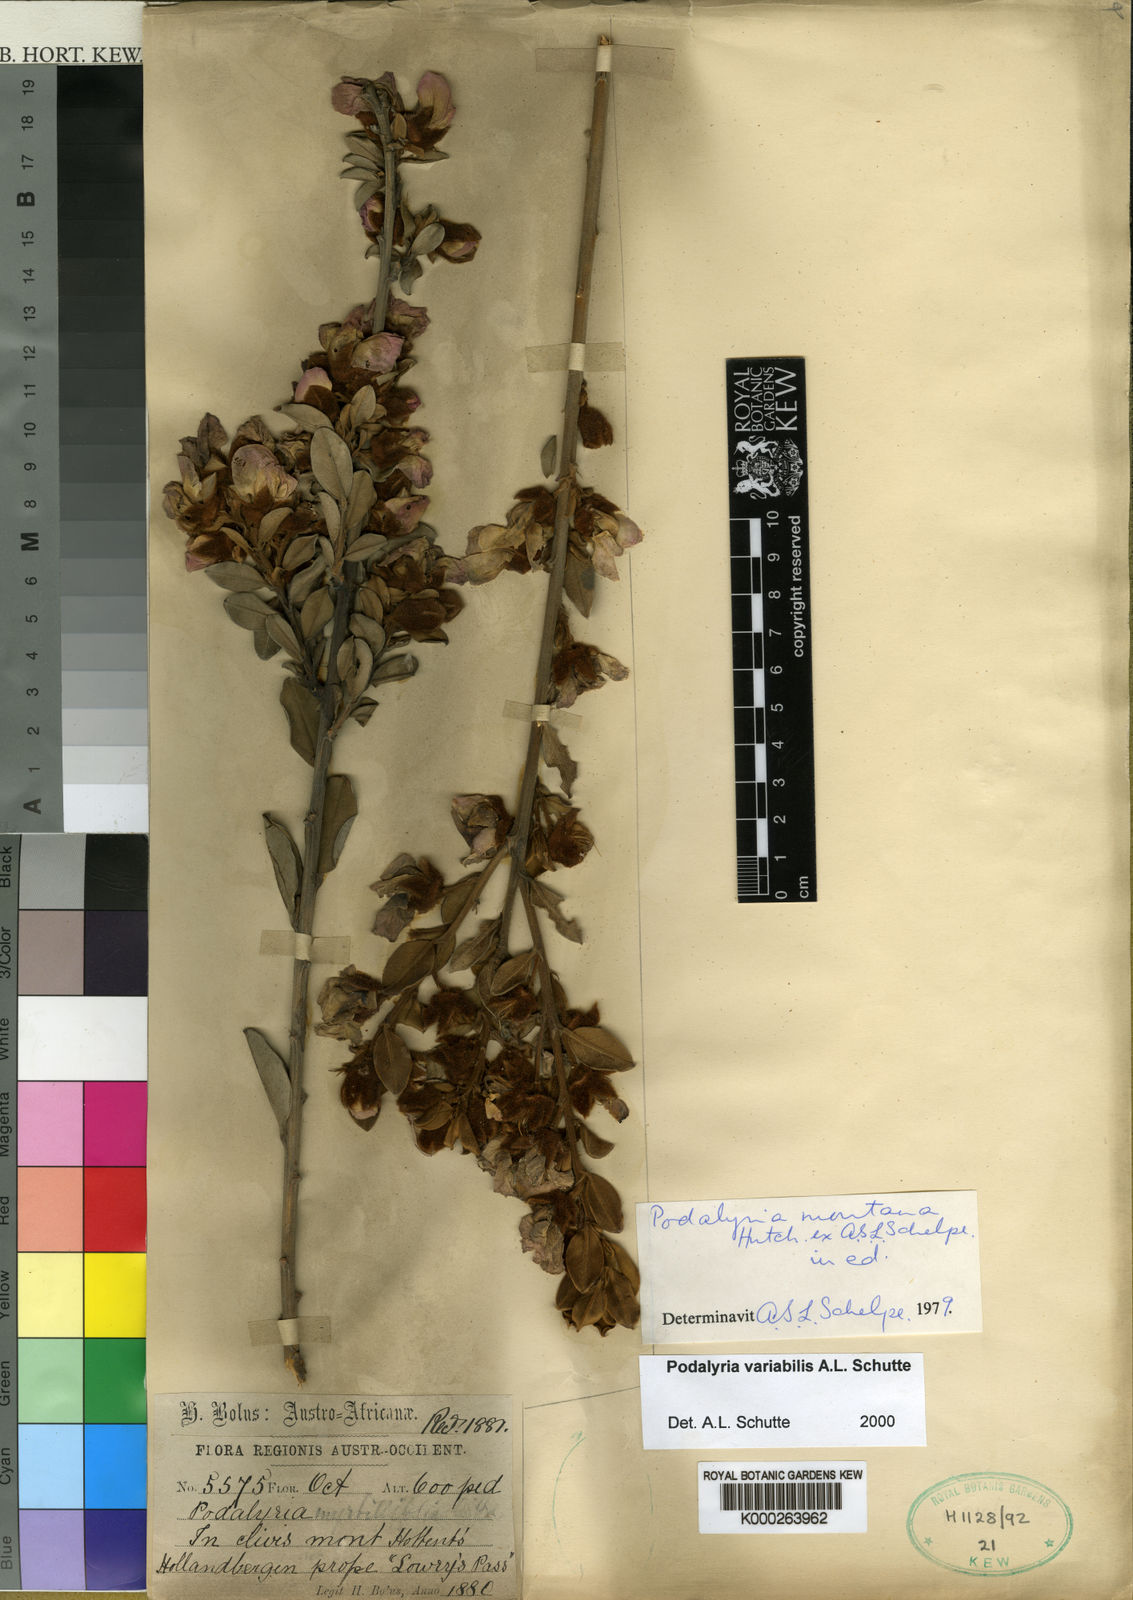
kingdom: Plantae
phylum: Tracheophyta
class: Magnoliopsida
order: Fabales
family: Fabaceae
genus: Podalyria
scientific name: Podalyria
